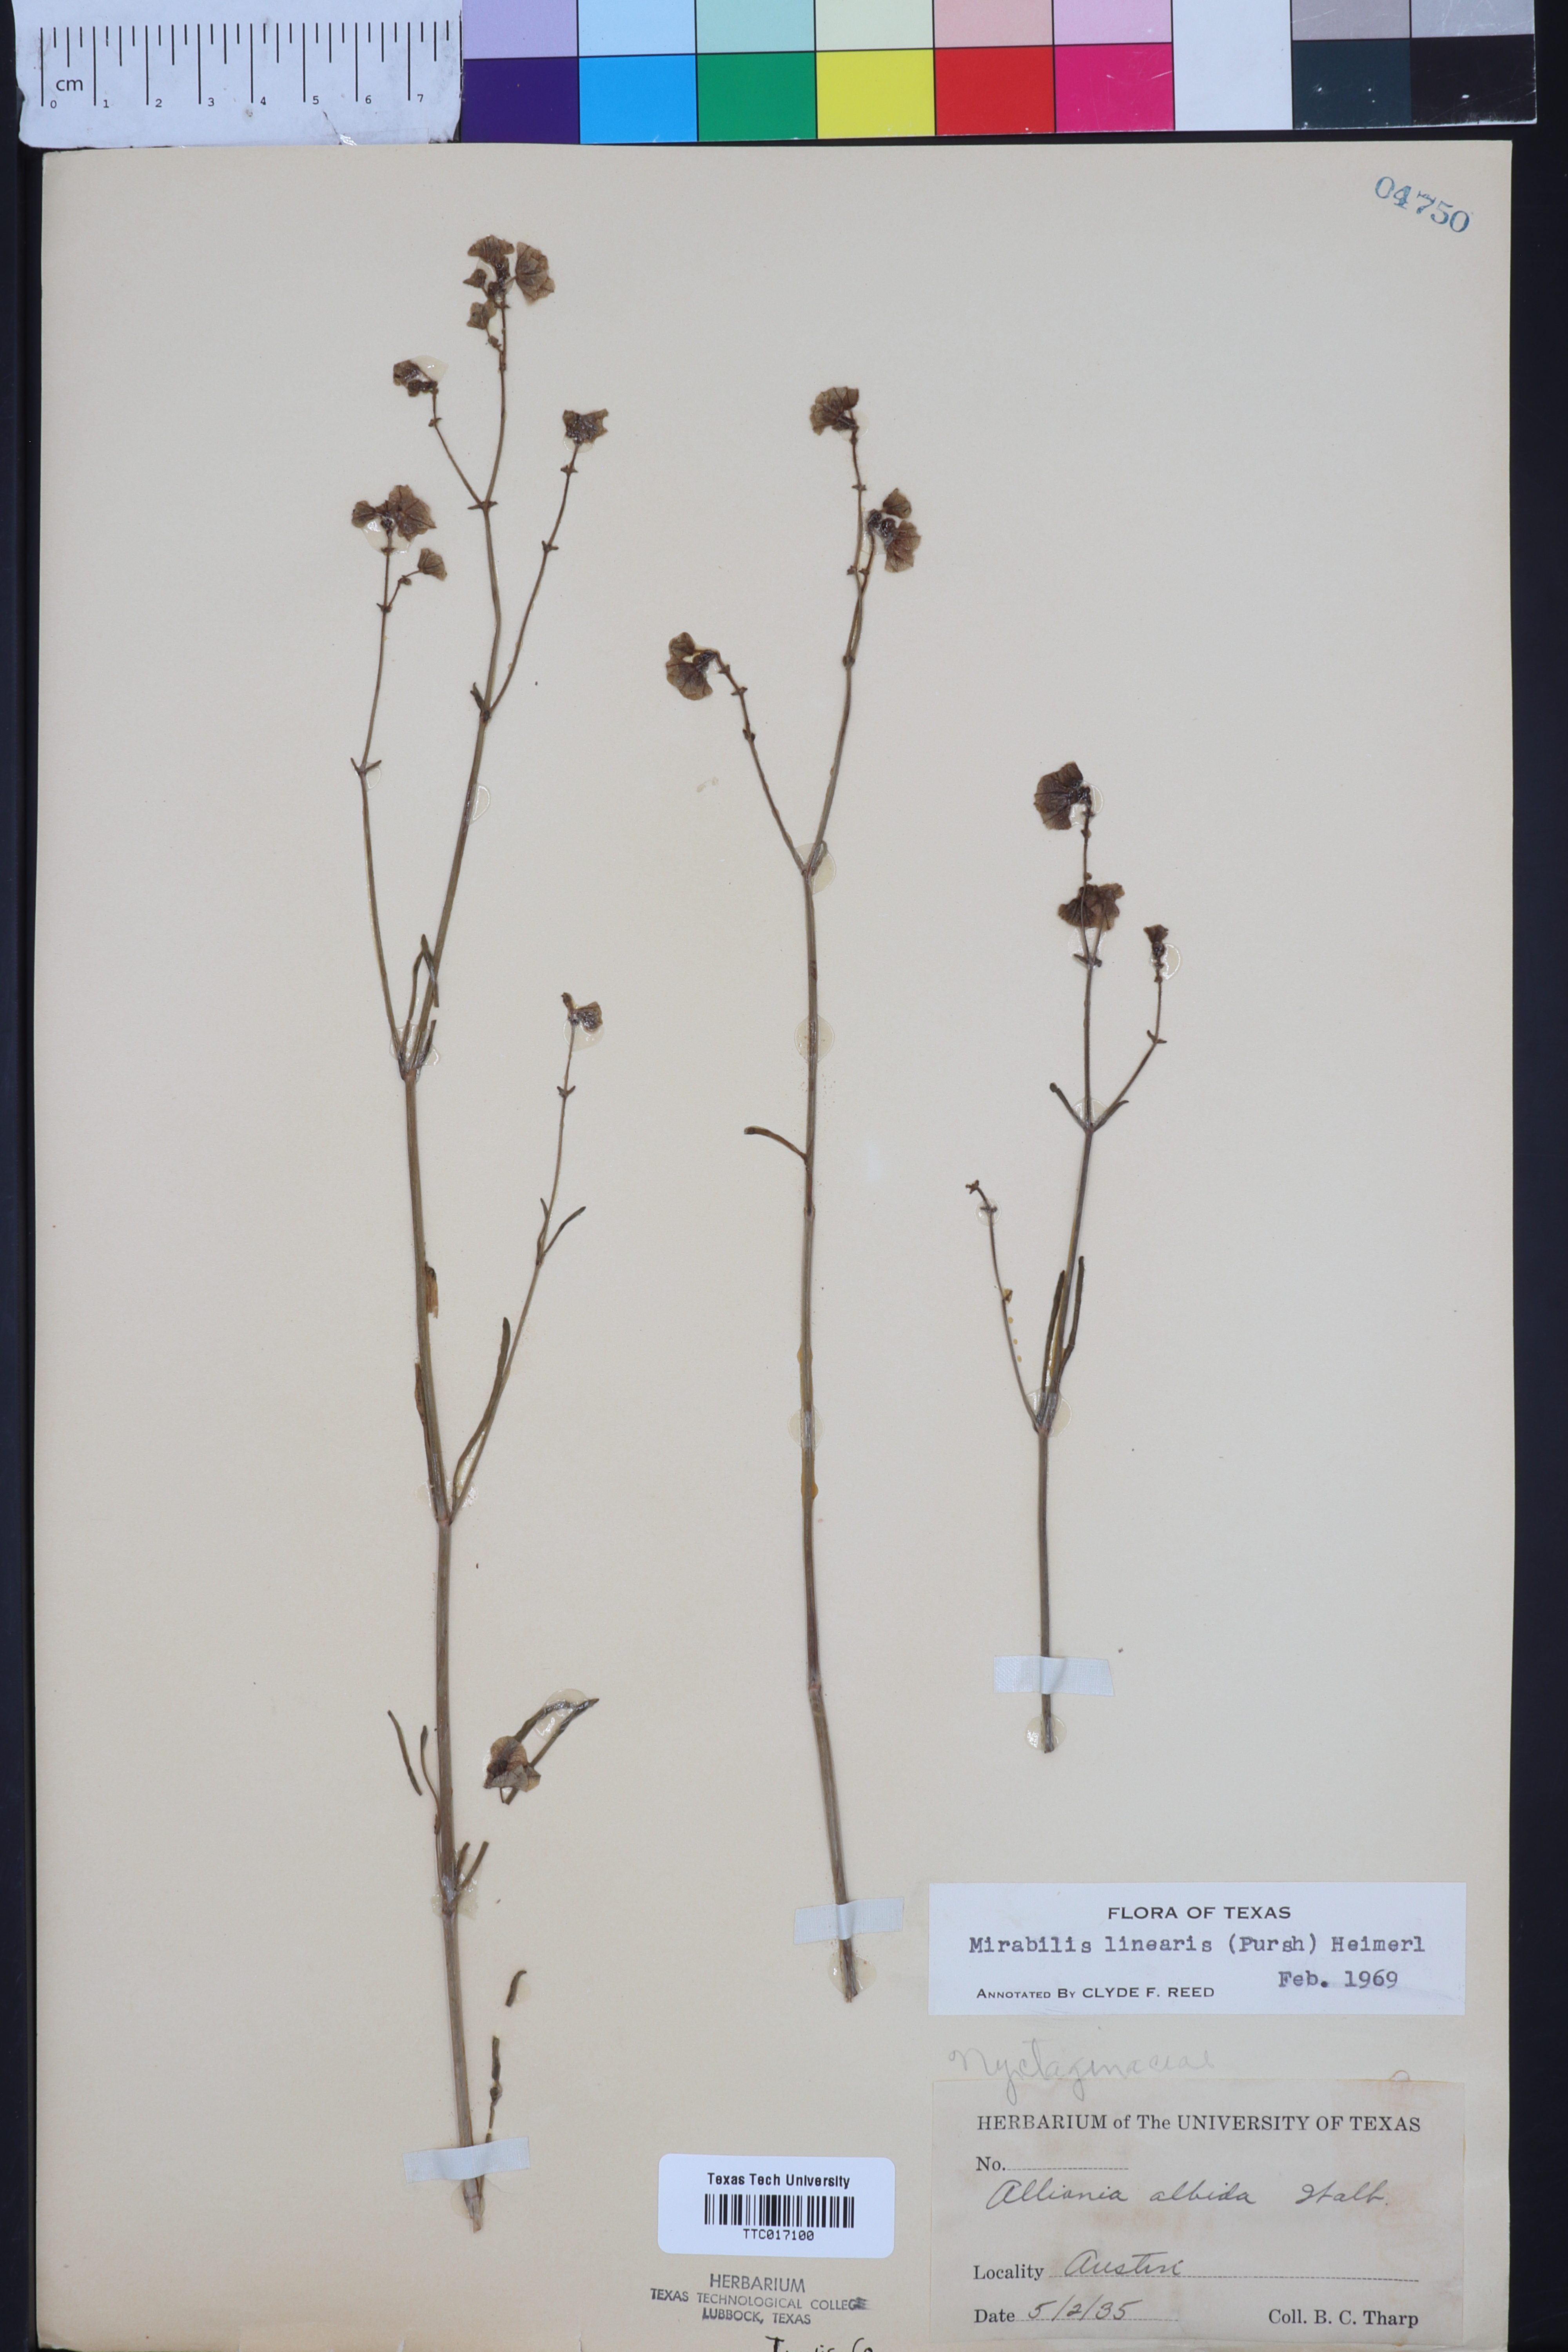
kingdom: Plantae
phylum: Tracheophyta
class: Magnoliopsida
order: Caryophyllales
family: Nyctaginaceae
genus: Mirabilis
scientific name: Mirabilis linearis
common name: Linear-leaved four-o'clock
